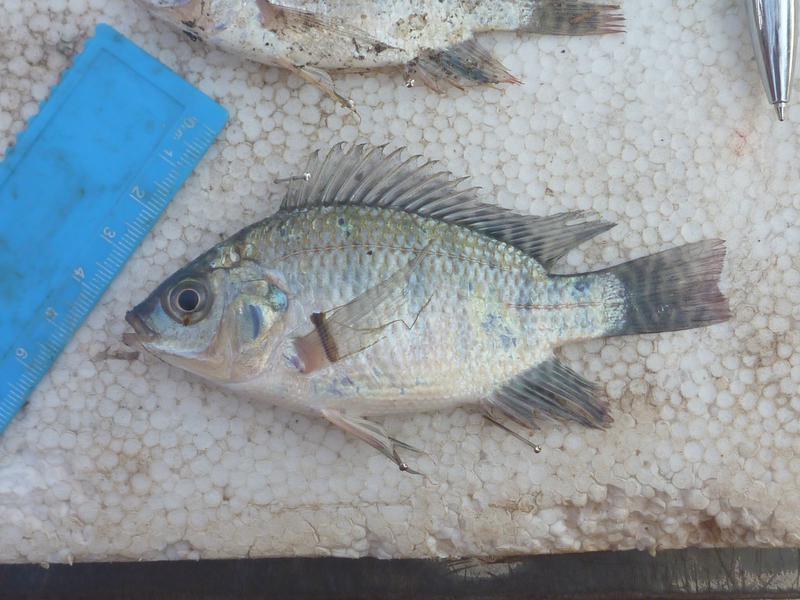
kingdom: Animalia
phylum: Chordata
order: Perciformes
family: Cichlidae
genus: Oreochromis
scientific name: Oreochromis niloticus
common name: Nile tilapia
